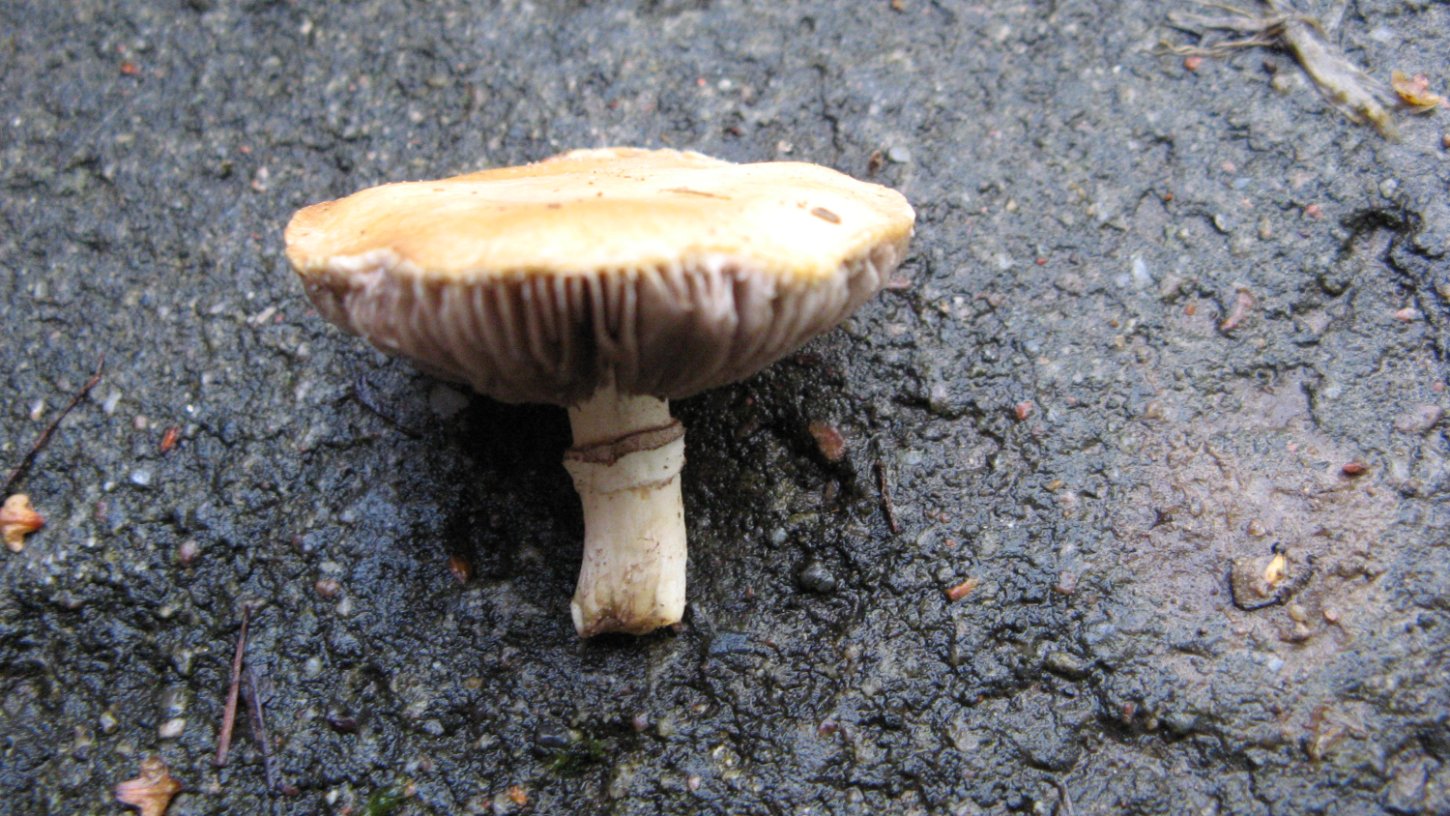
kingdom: Fungi
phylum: Basidiomycota
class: Agaricomycetes
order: Agaricales
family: Hymenogastraceae
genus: Psilocybe
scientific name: Psilocybe coronilla
